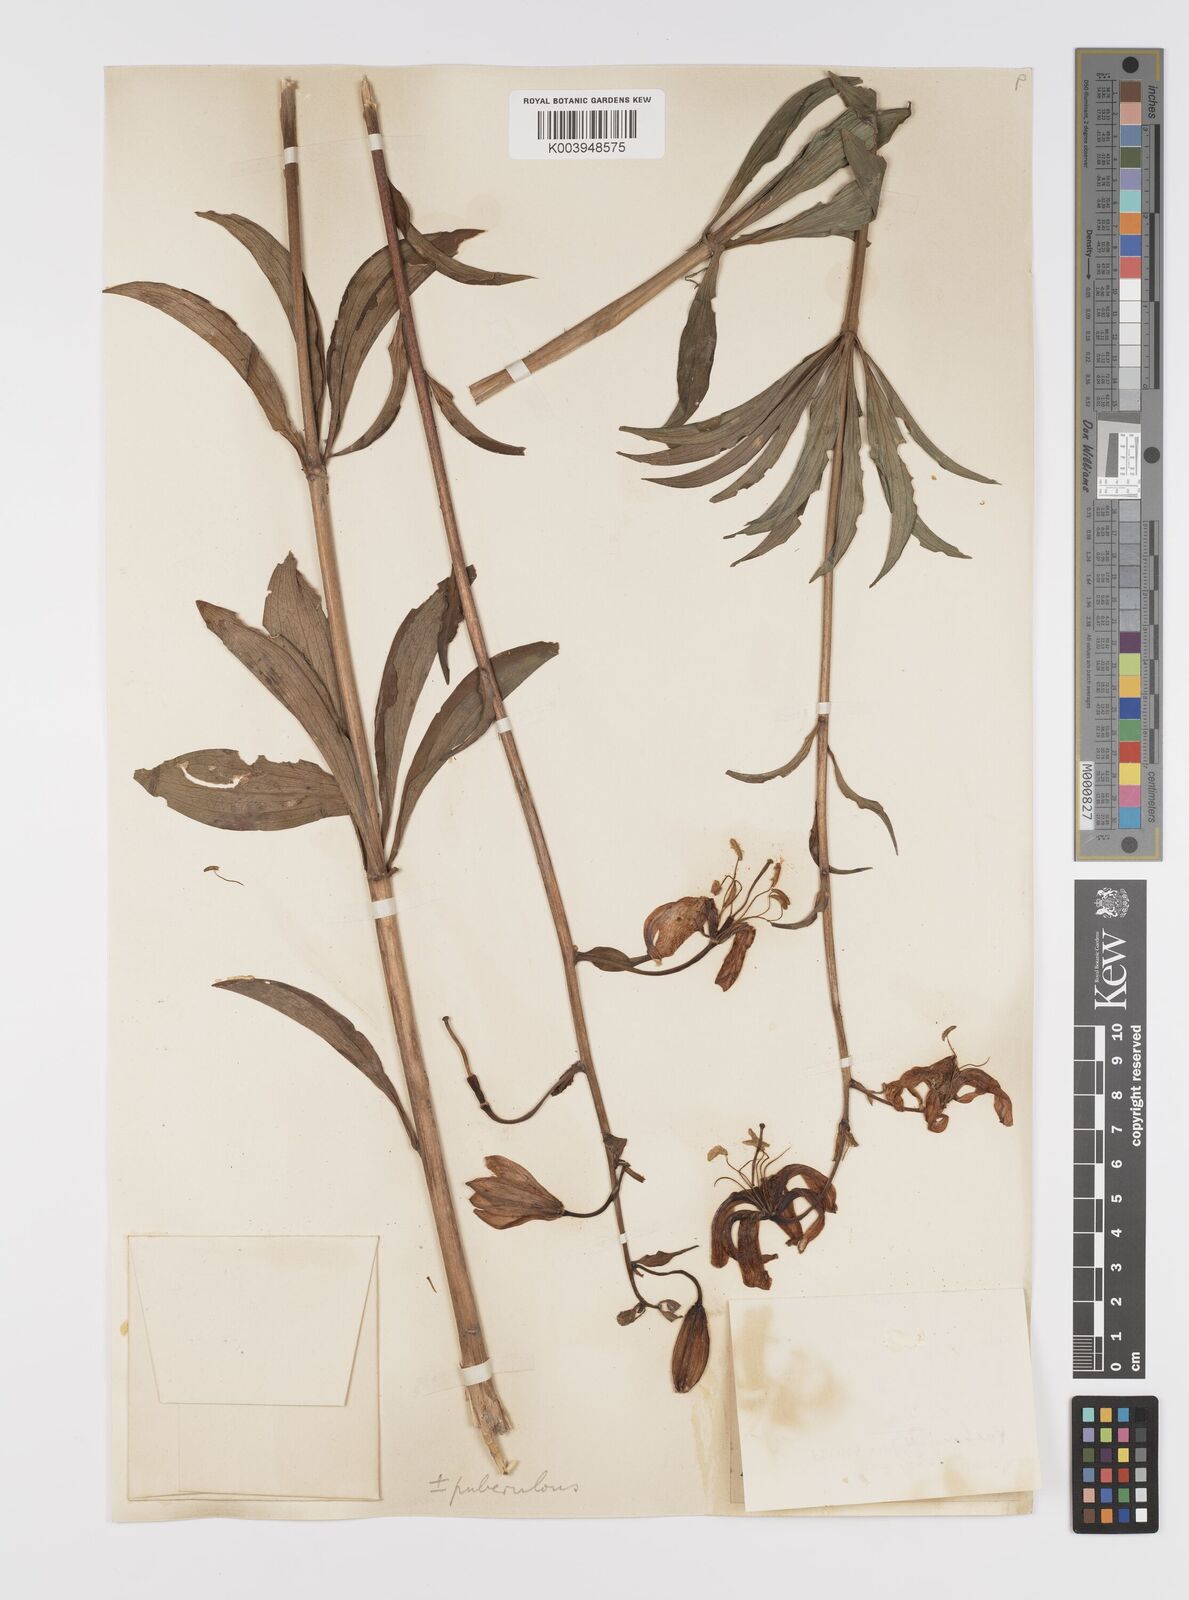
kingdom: Plantae
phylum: Tracheophyta
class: Liliopsida
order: Liliales
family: Liliaceae
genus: Lilium
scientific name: Lilium martagon
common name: Martagon lily
